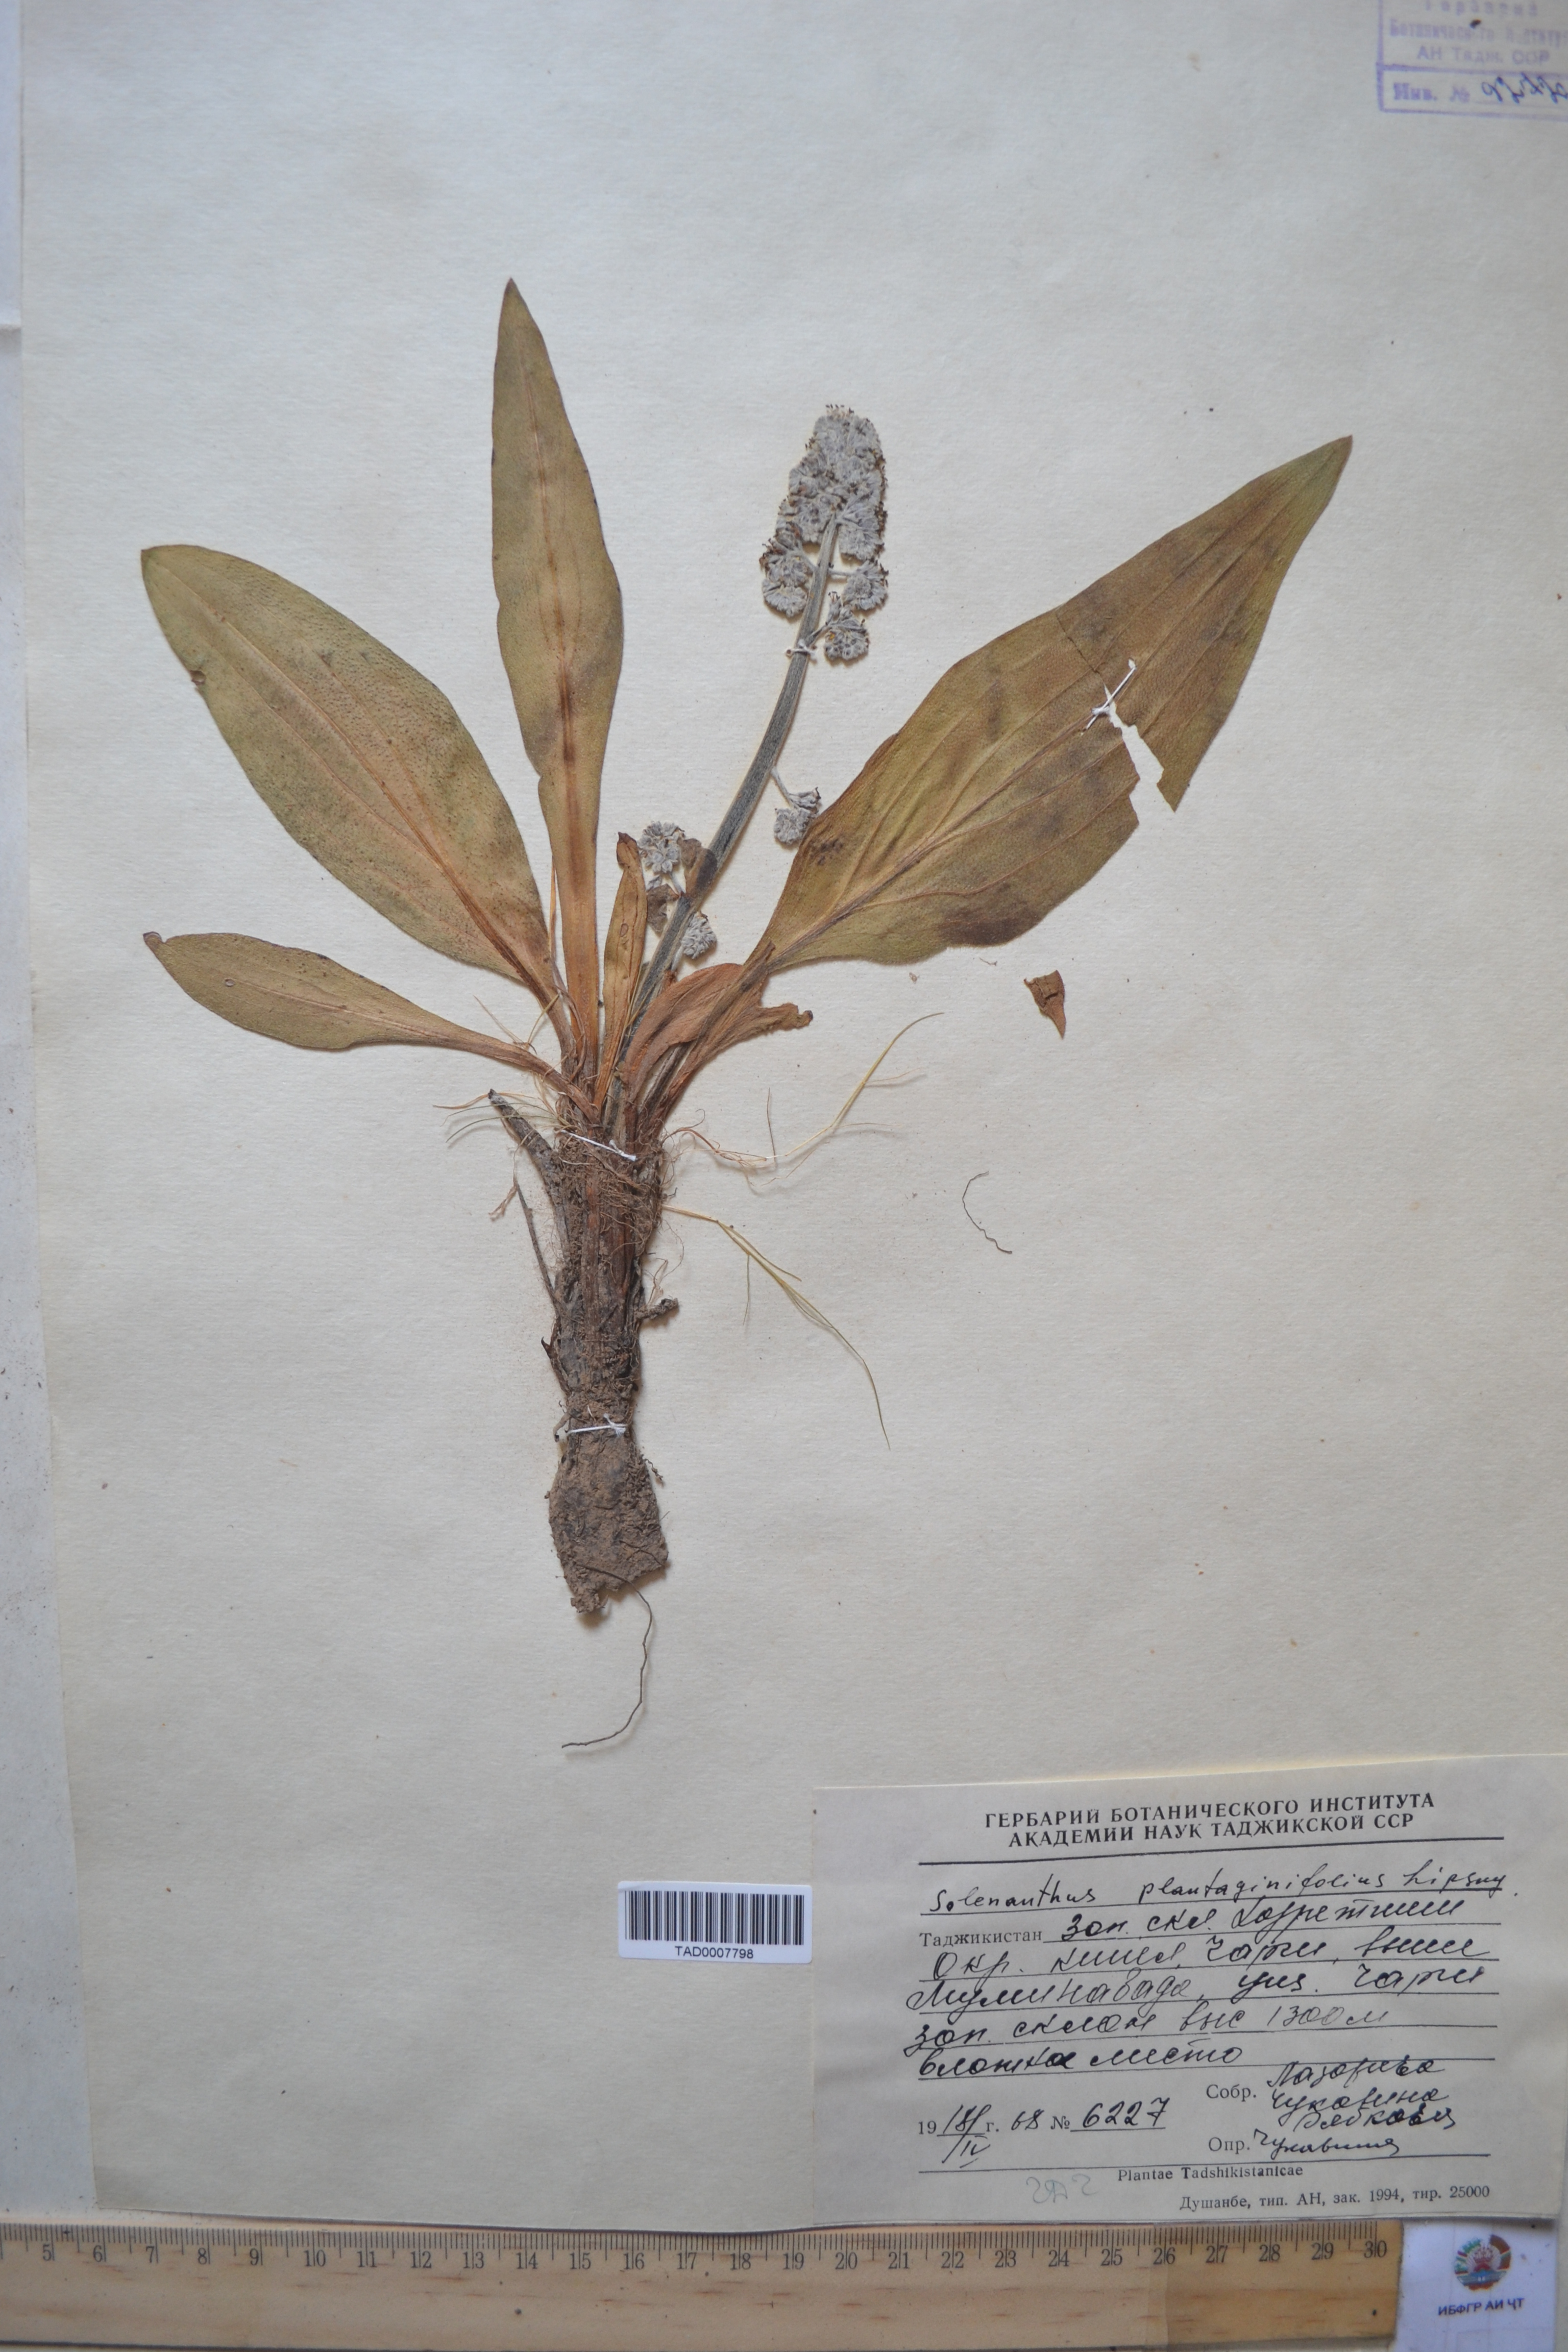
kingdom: Plantae
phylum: Tracheophyta
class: Magnoliopsida
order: Boraginales
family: Boraginaceae
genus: Solenanthus
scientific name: Solenanthus plantaginifolius
